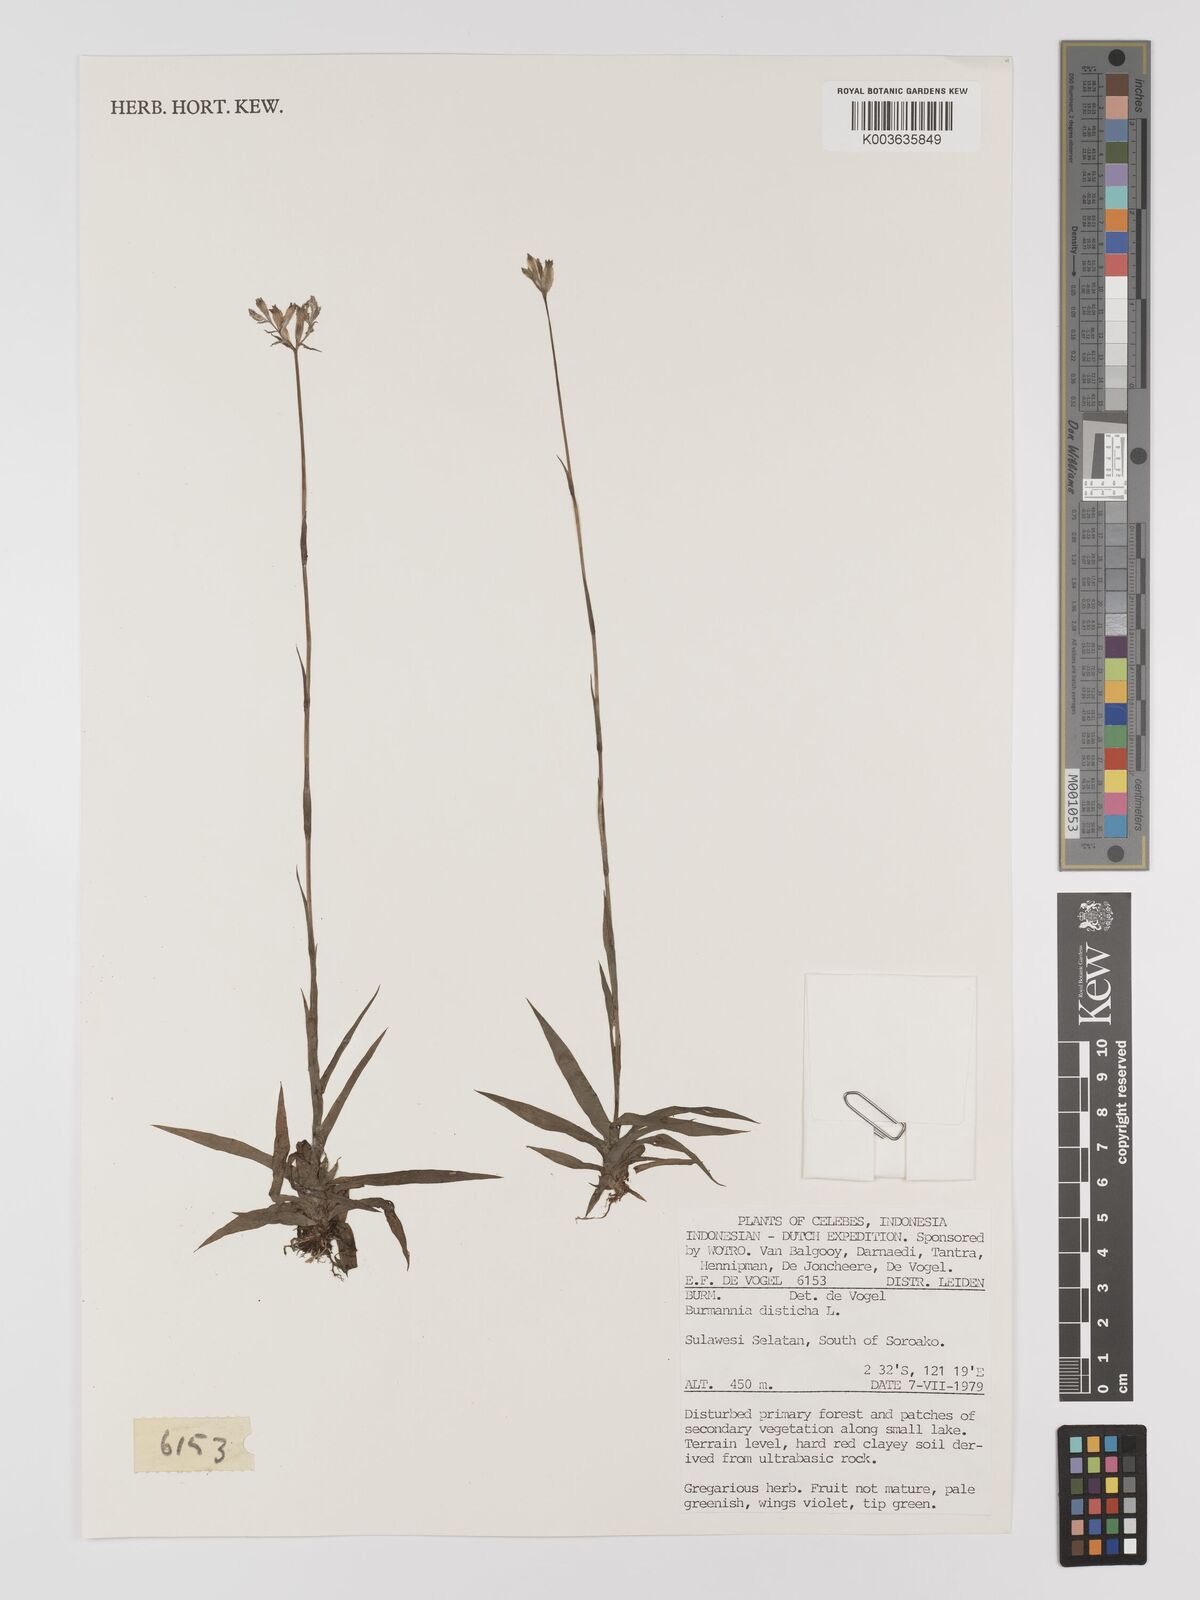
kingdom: Plantae
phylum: Tracheophyta
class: Liliopsida
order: Dioscoreales
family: Burmanniaceae
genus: Burmannia
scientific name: Burmannia disticha
